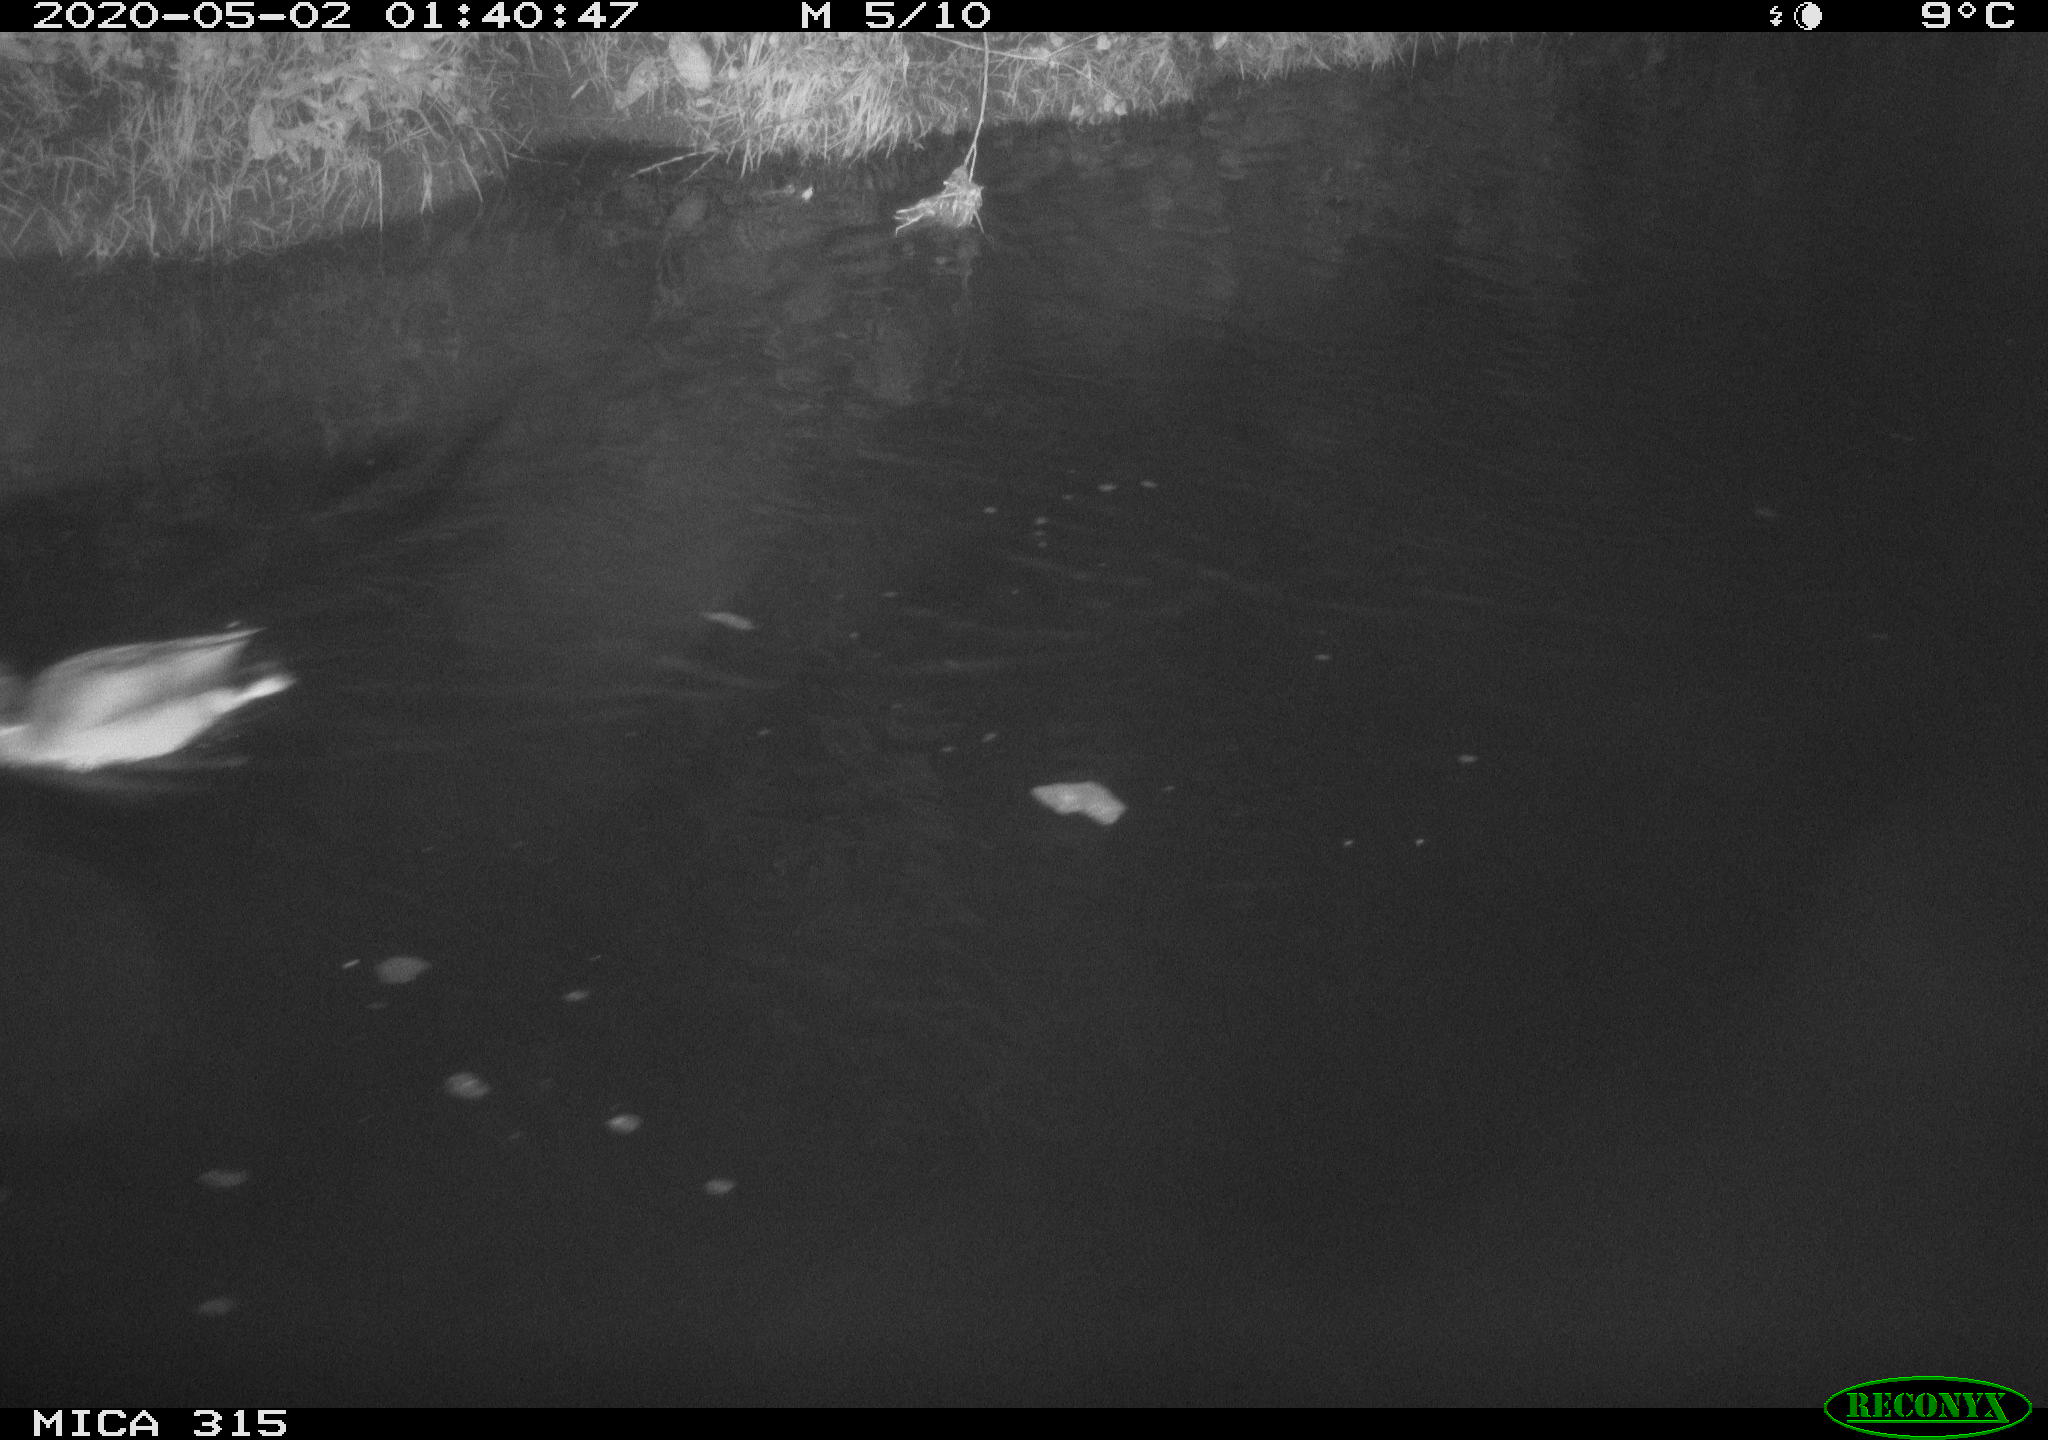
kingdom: Animalia
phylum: Chordata
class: Aves
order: Anseriformes
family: Anatidae
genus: Anas
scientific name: Anas platyrhynchos
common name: Mallard
